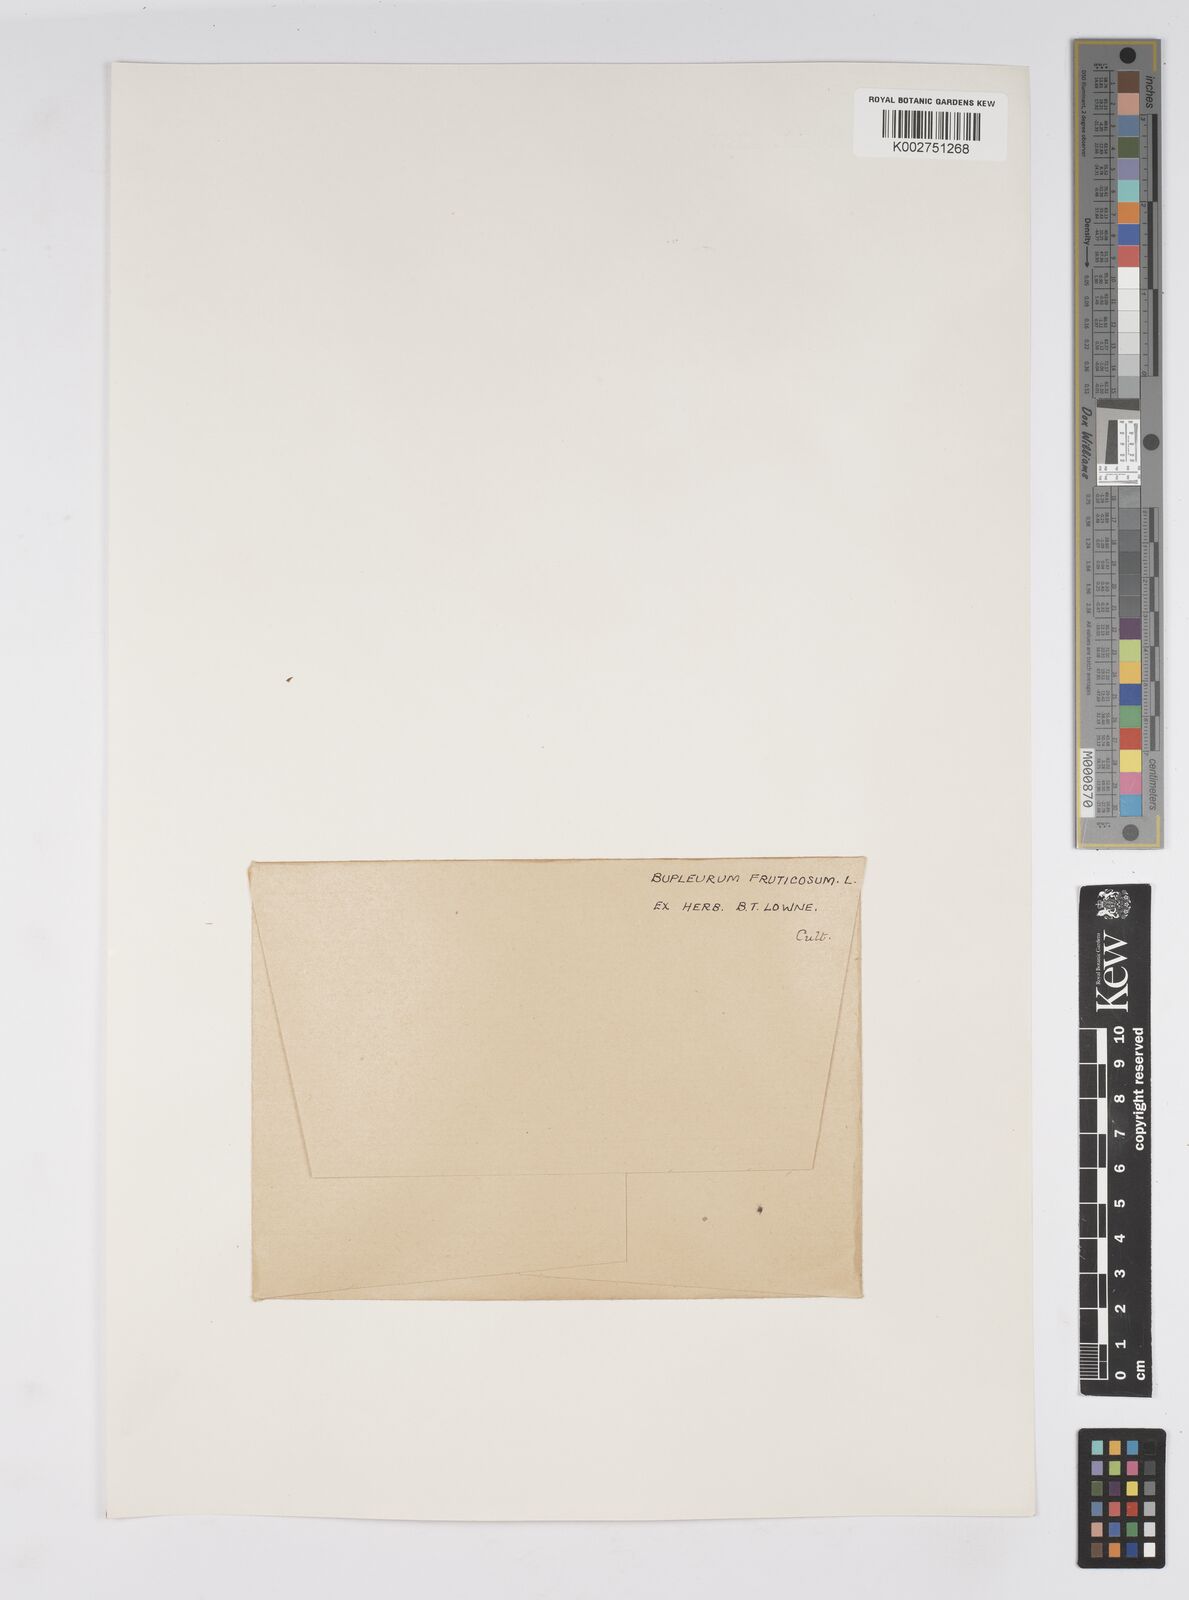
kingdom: Plantae
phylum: Tracheophyta
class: Magnoliopsida
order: Apiales
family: Apiaceae
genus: Bupleurum
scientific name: Bupleurum fruticosum
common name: Shrubby hare's-ear
